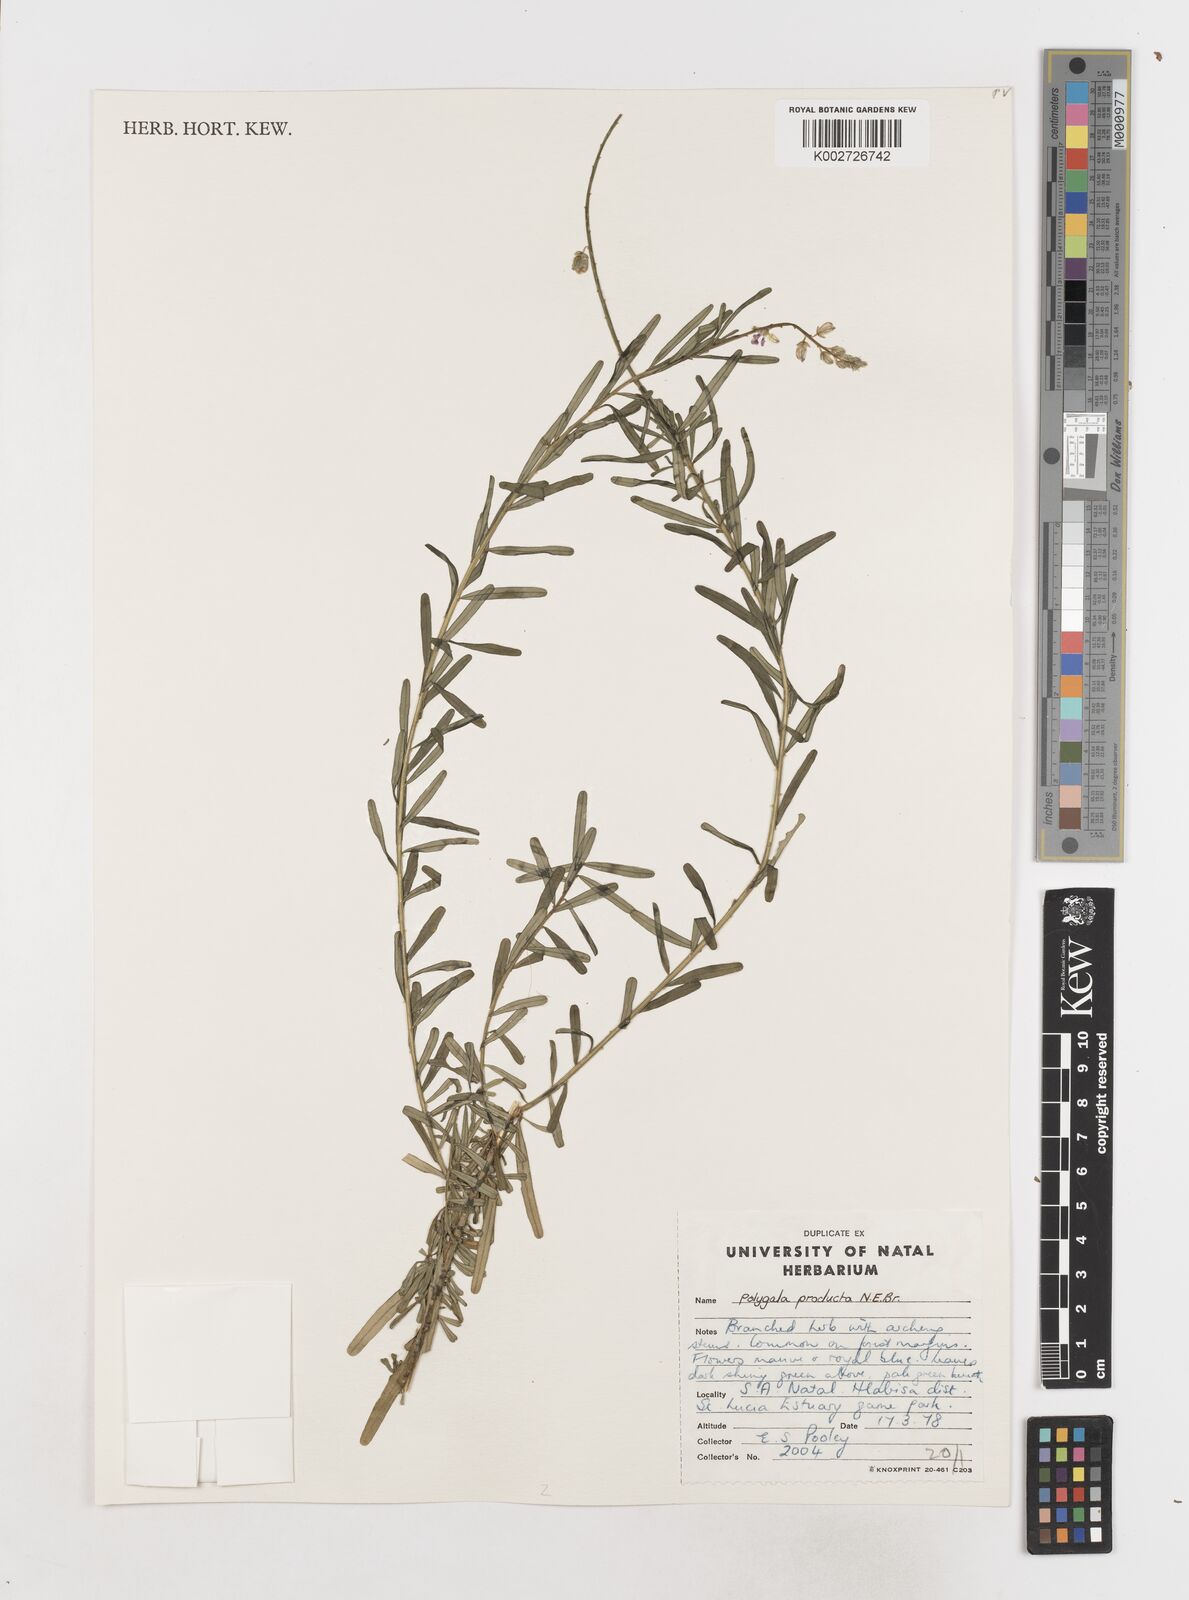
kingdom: Plantae
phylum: Tracheophyta
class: Magnoliopsida
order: Fabales
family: Polygalaceae
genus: Polygala
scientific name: Polygala producta
